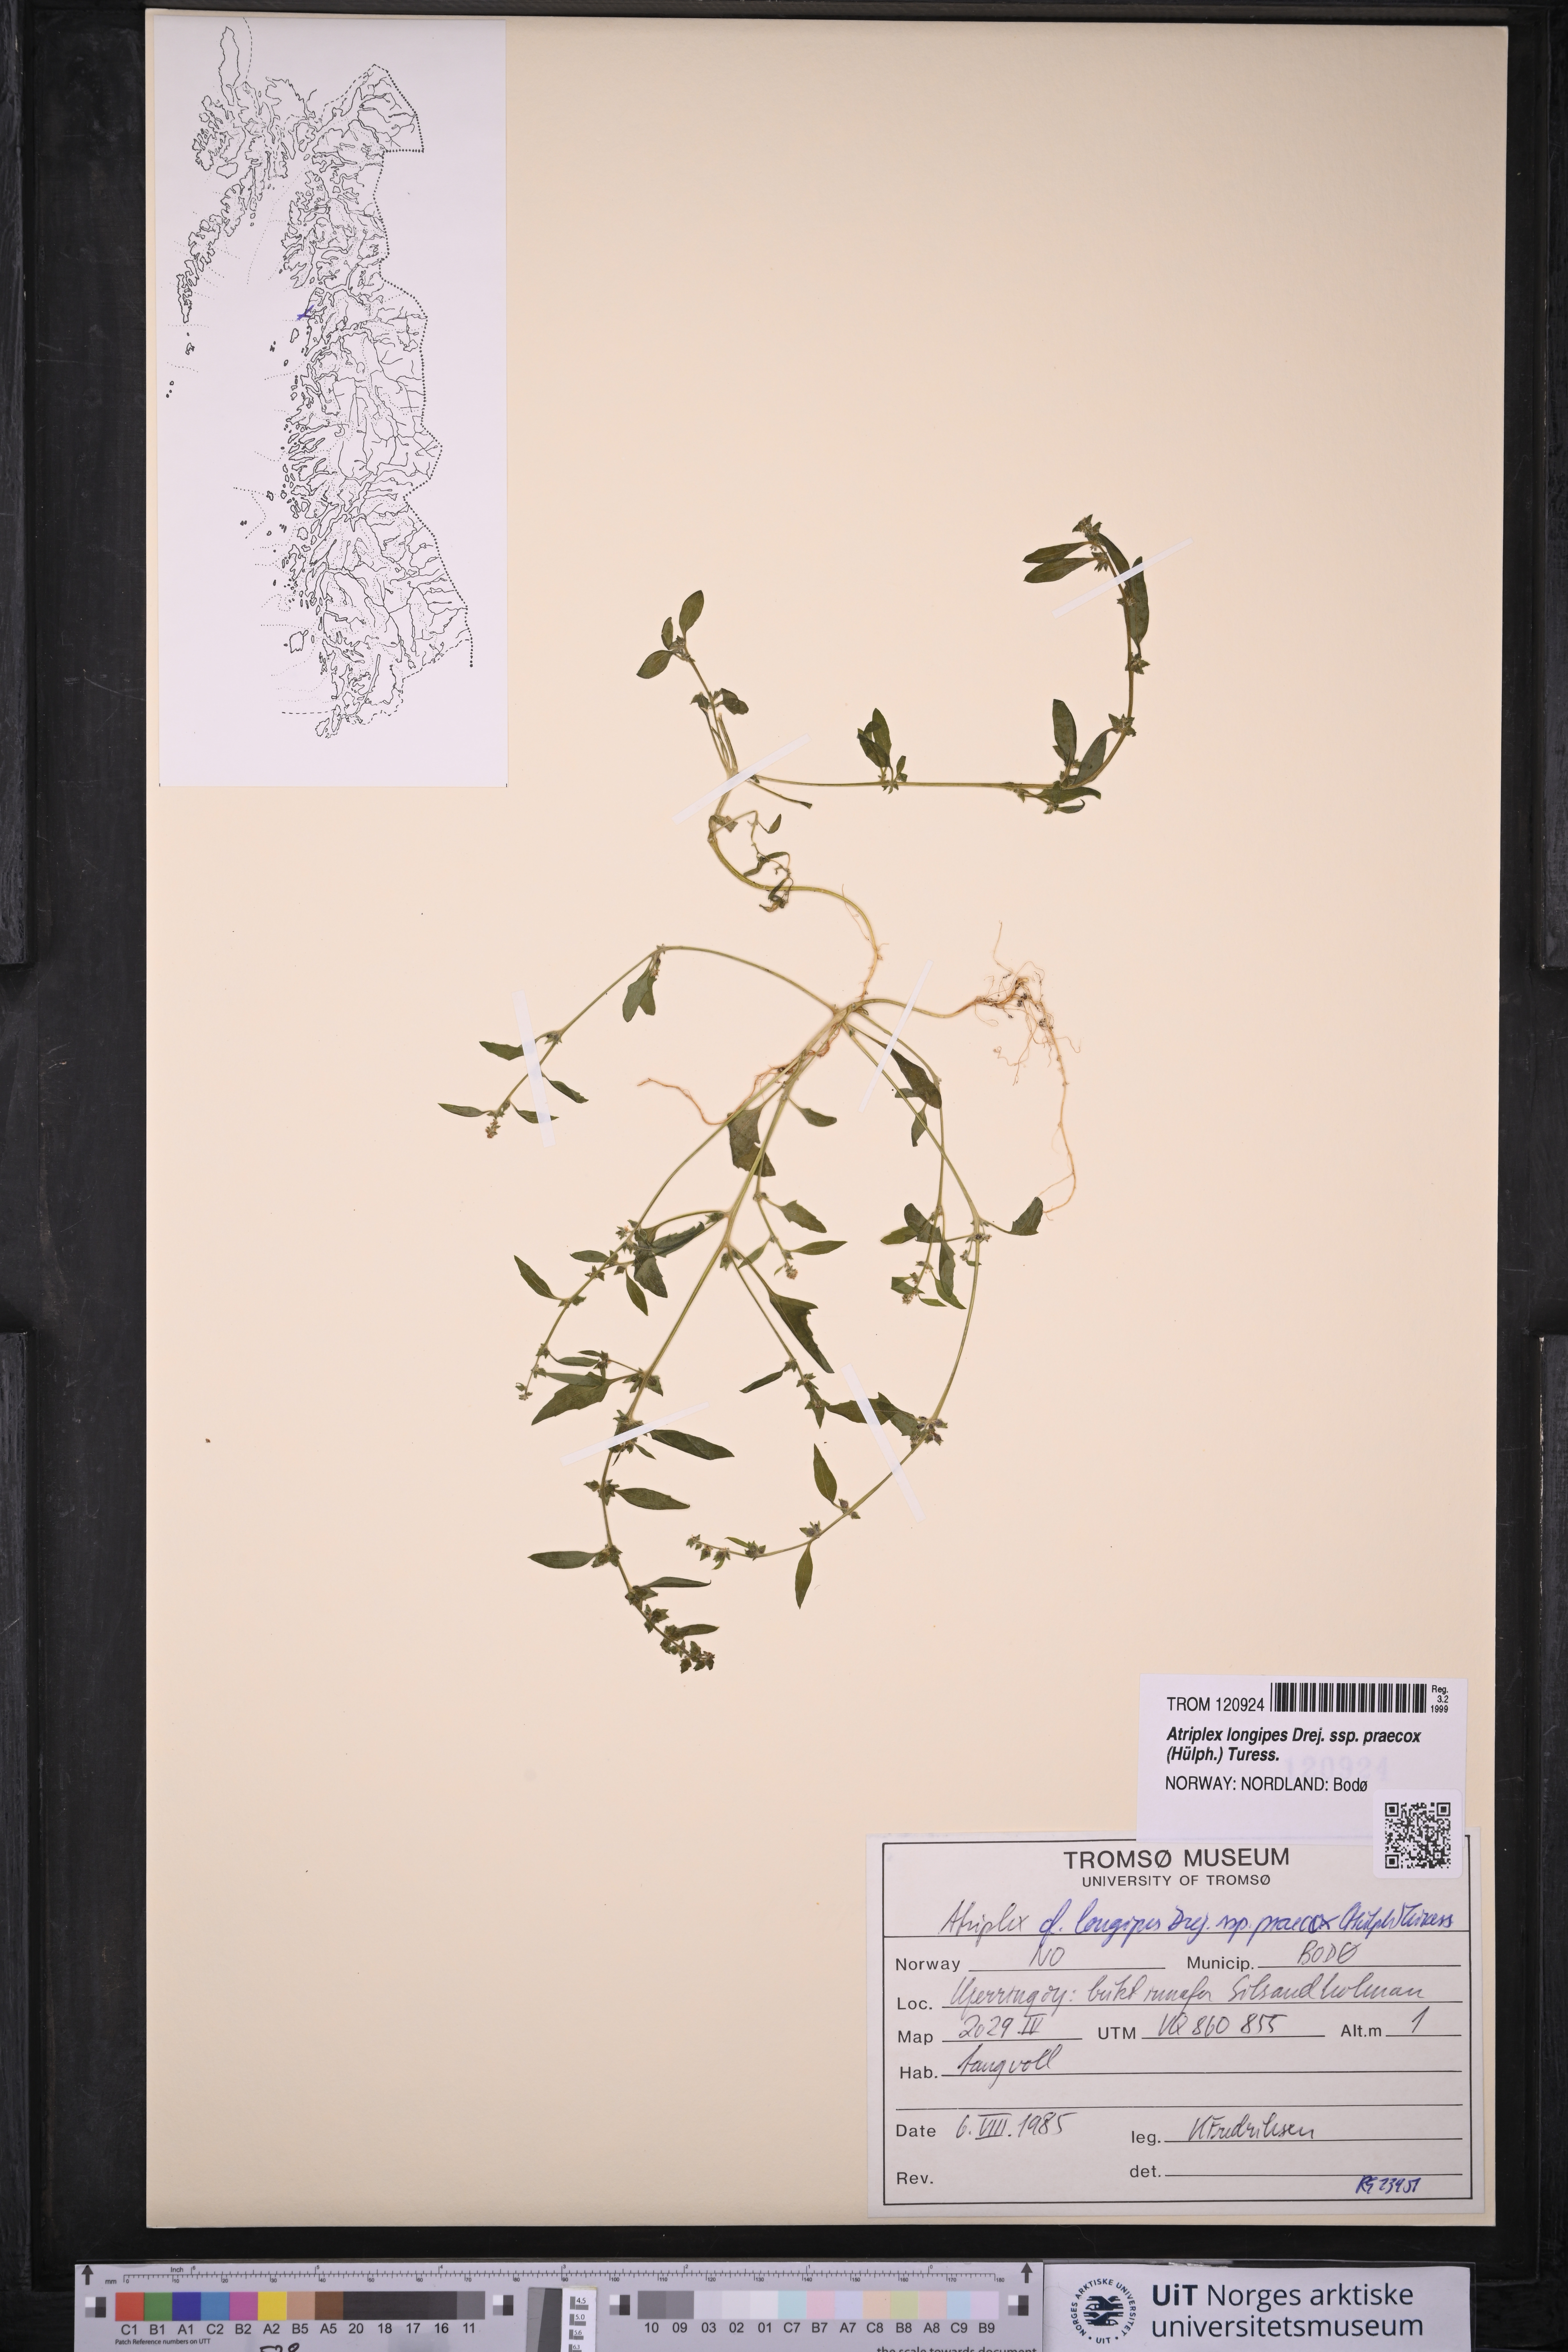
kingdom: Plantae
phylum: Tracheophyta
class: Magnoliopsida
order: Caryophyllales
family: Amaranthaceae
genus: Atriplex
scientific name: Atriplex praecox
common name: Early orache
